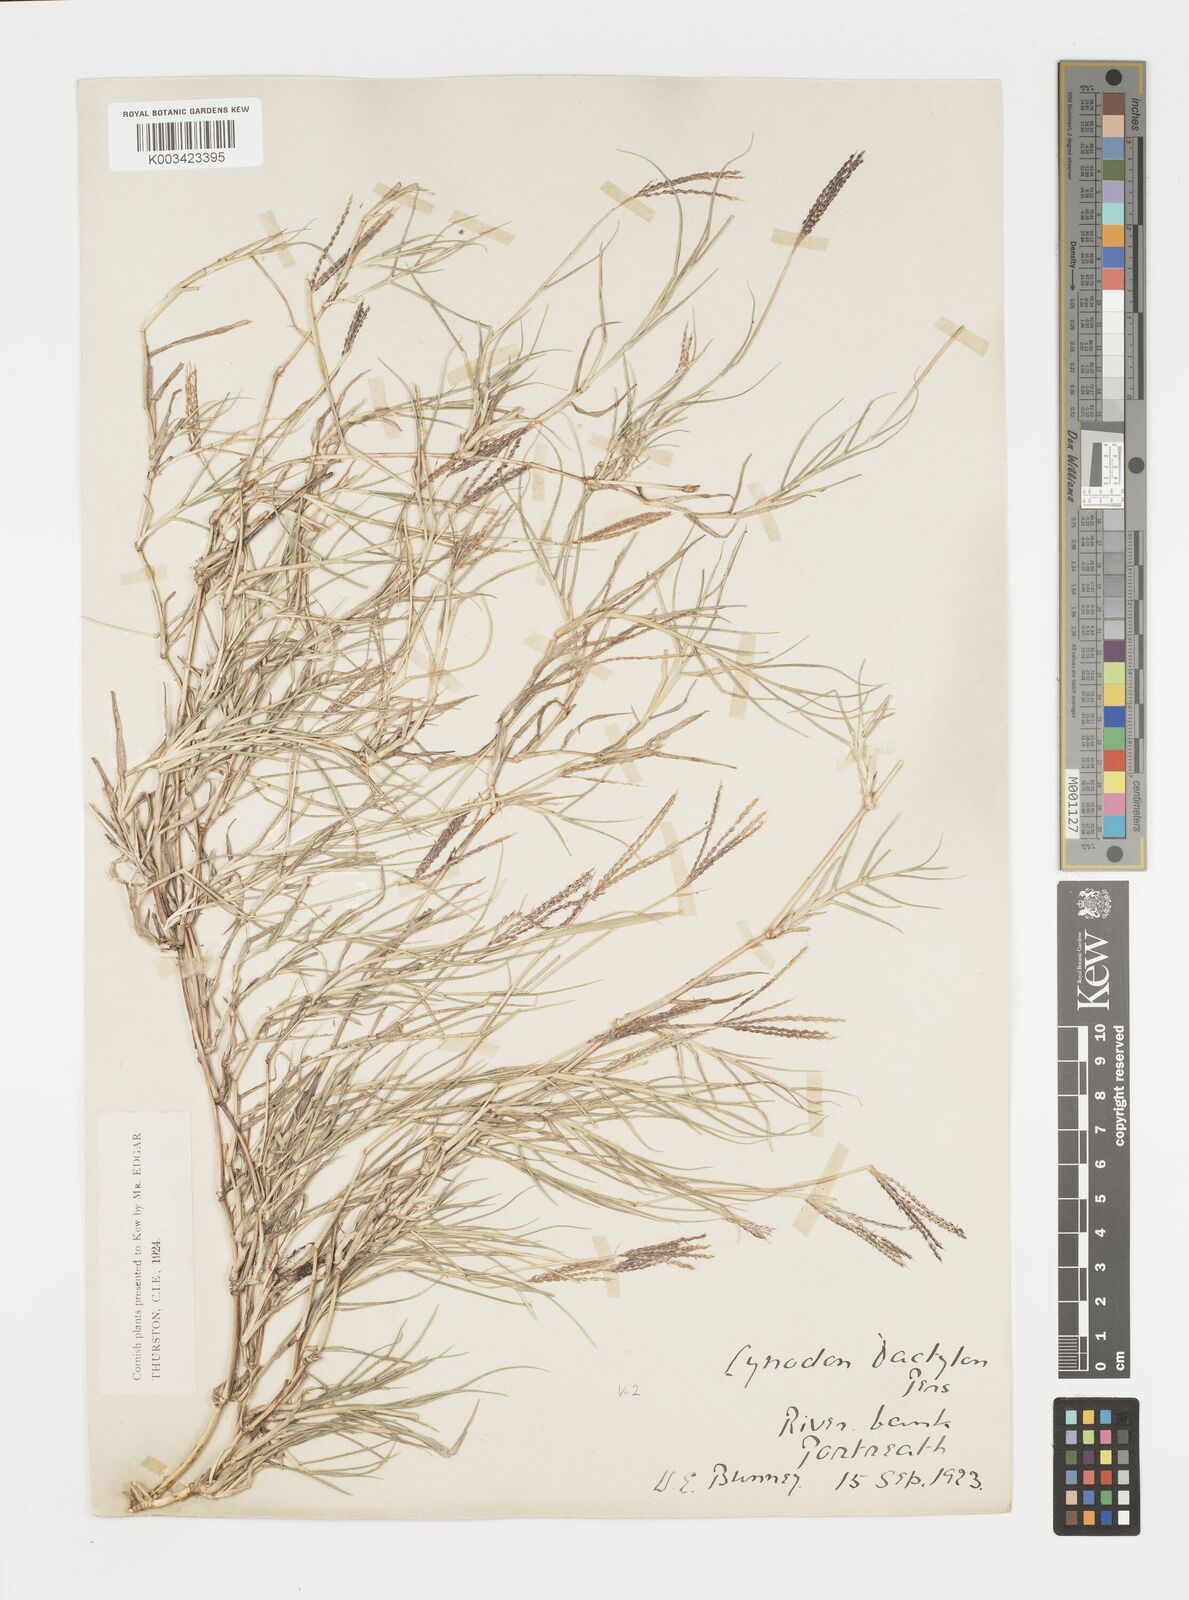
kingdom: Plantae
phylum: Tracheophyta
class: Liliopsida
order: Poales
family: Poaceae
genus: Cynodon
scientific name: Cynodon dactylon
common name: Bermuda grass
